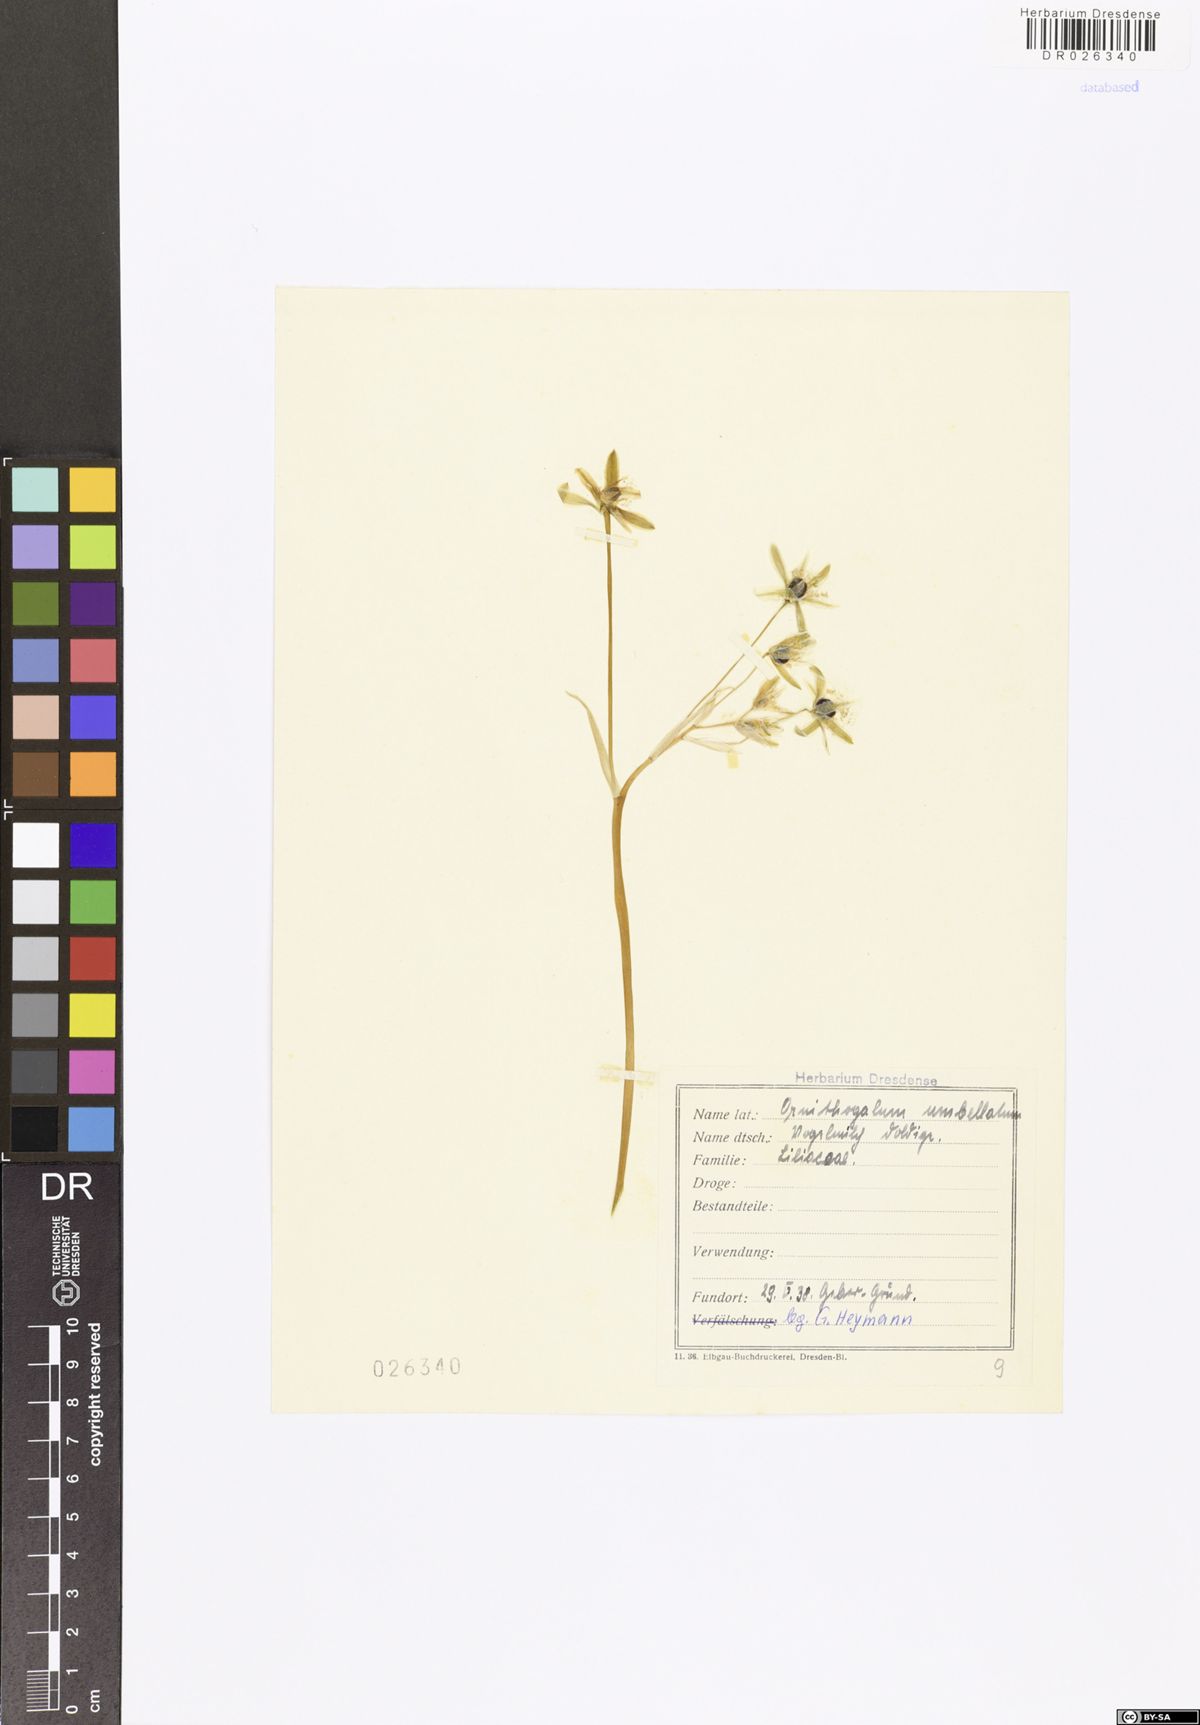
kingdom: Plantae
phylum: Tracheophyta
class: Liliopsida
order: Asparagales
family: Asparagaceae
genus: Ornithogalum
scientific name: Ornithogalum umbellatum
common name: Garden star-of-bethlehem
